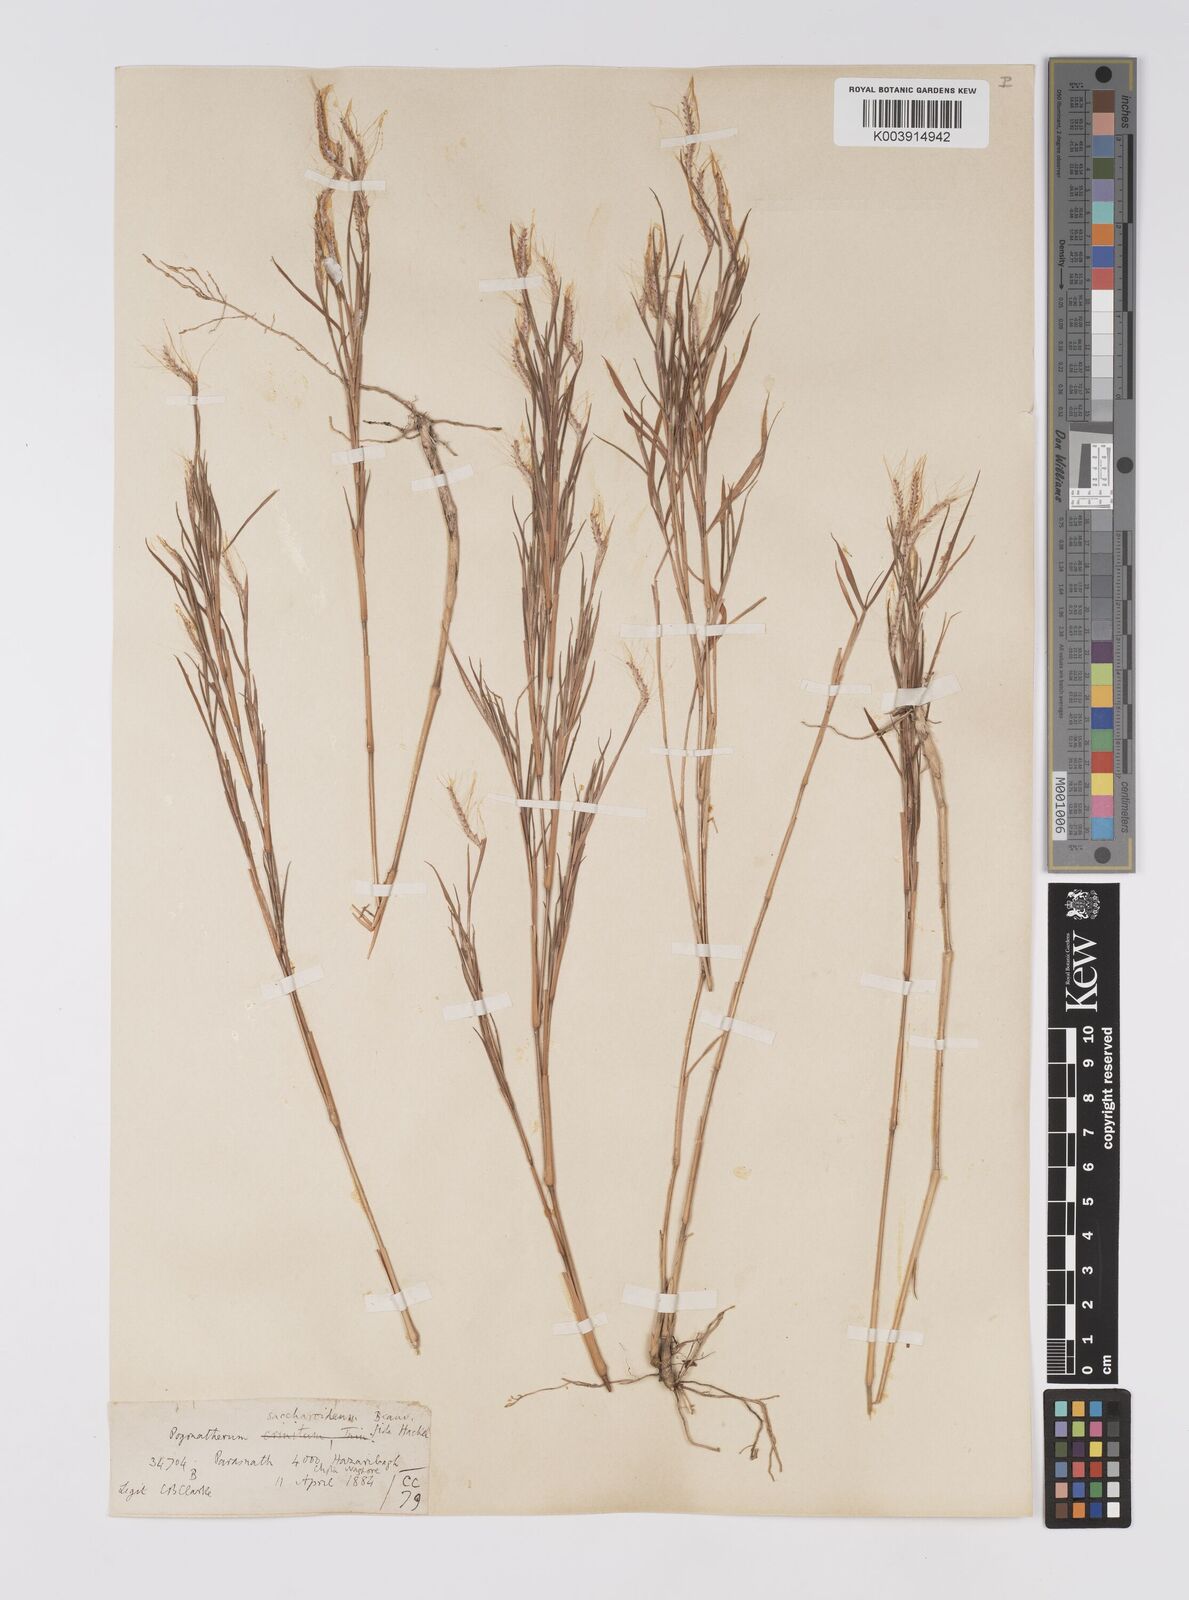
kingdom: Plantae
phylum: Tracheophyta
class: Liliopsida
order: Poales
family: Poaceae
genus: Pogonatherum
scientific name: Pogonatherum paniceum
